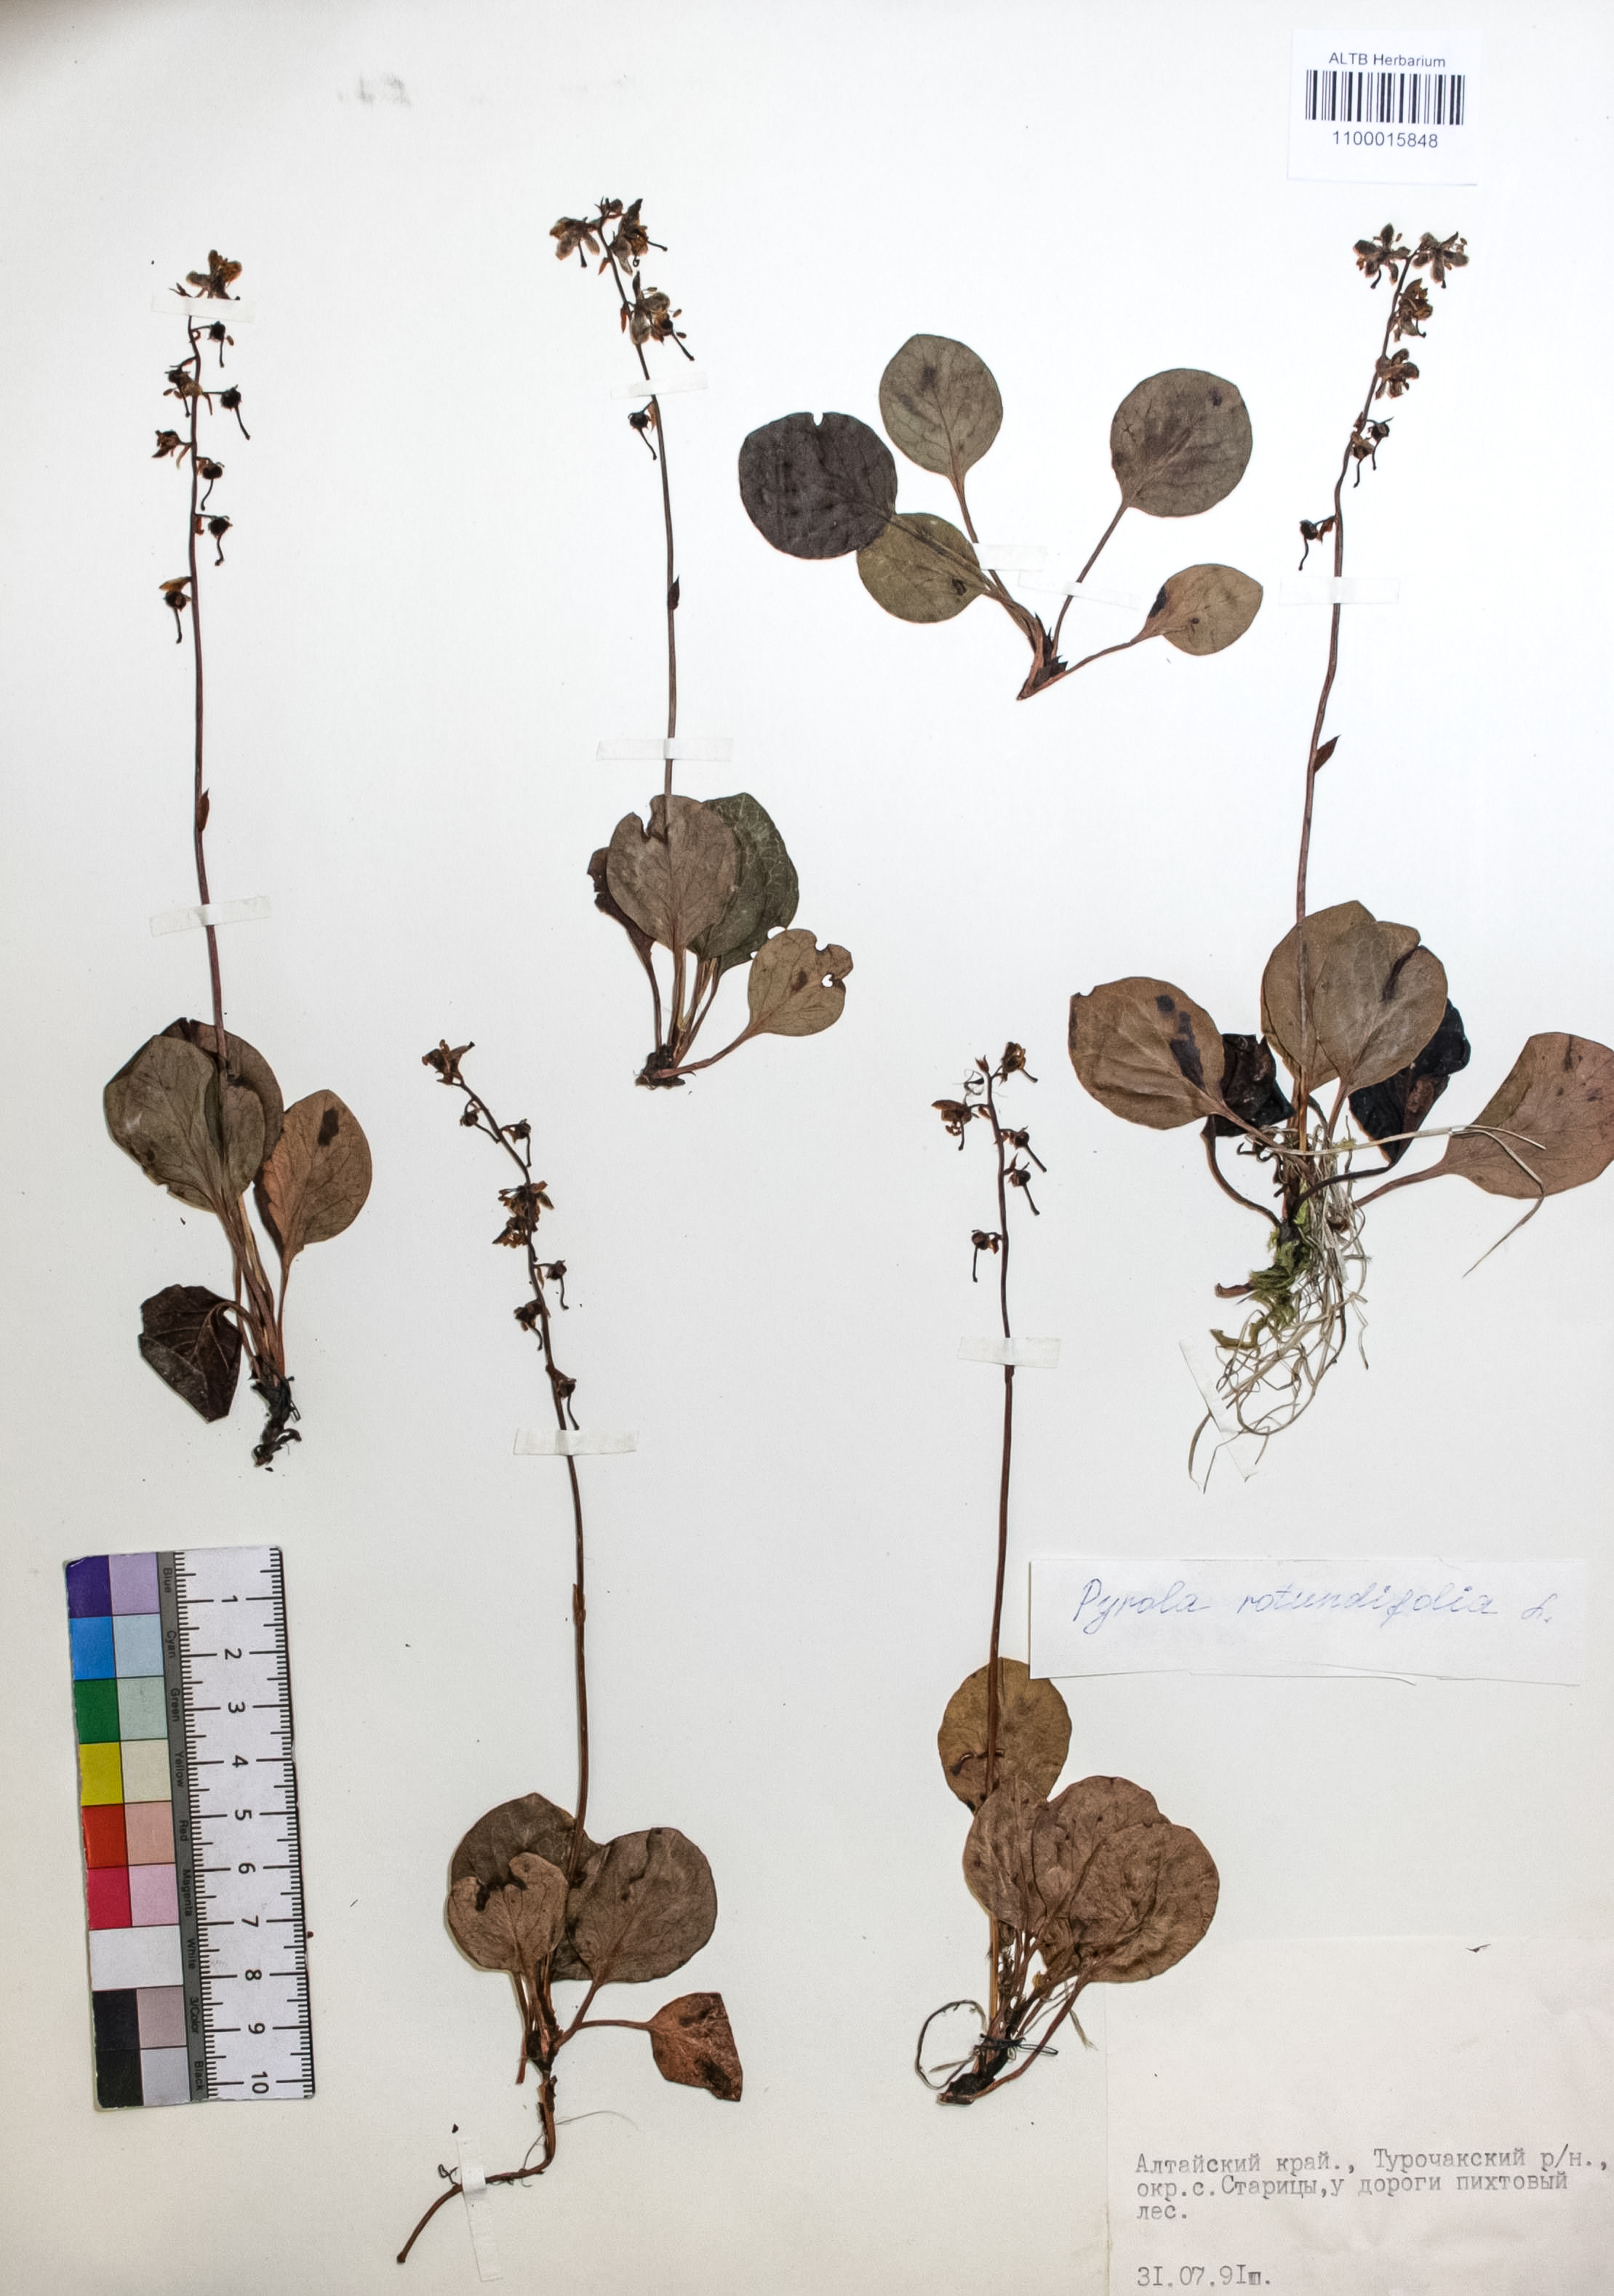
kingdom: Plantae
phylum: Tracheophyta
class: Magnoliopsida
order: Ericales
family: Ericaceae
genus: Pyrola
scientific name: Pyrola rotundifolia
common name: Round-leaved wintergreen
